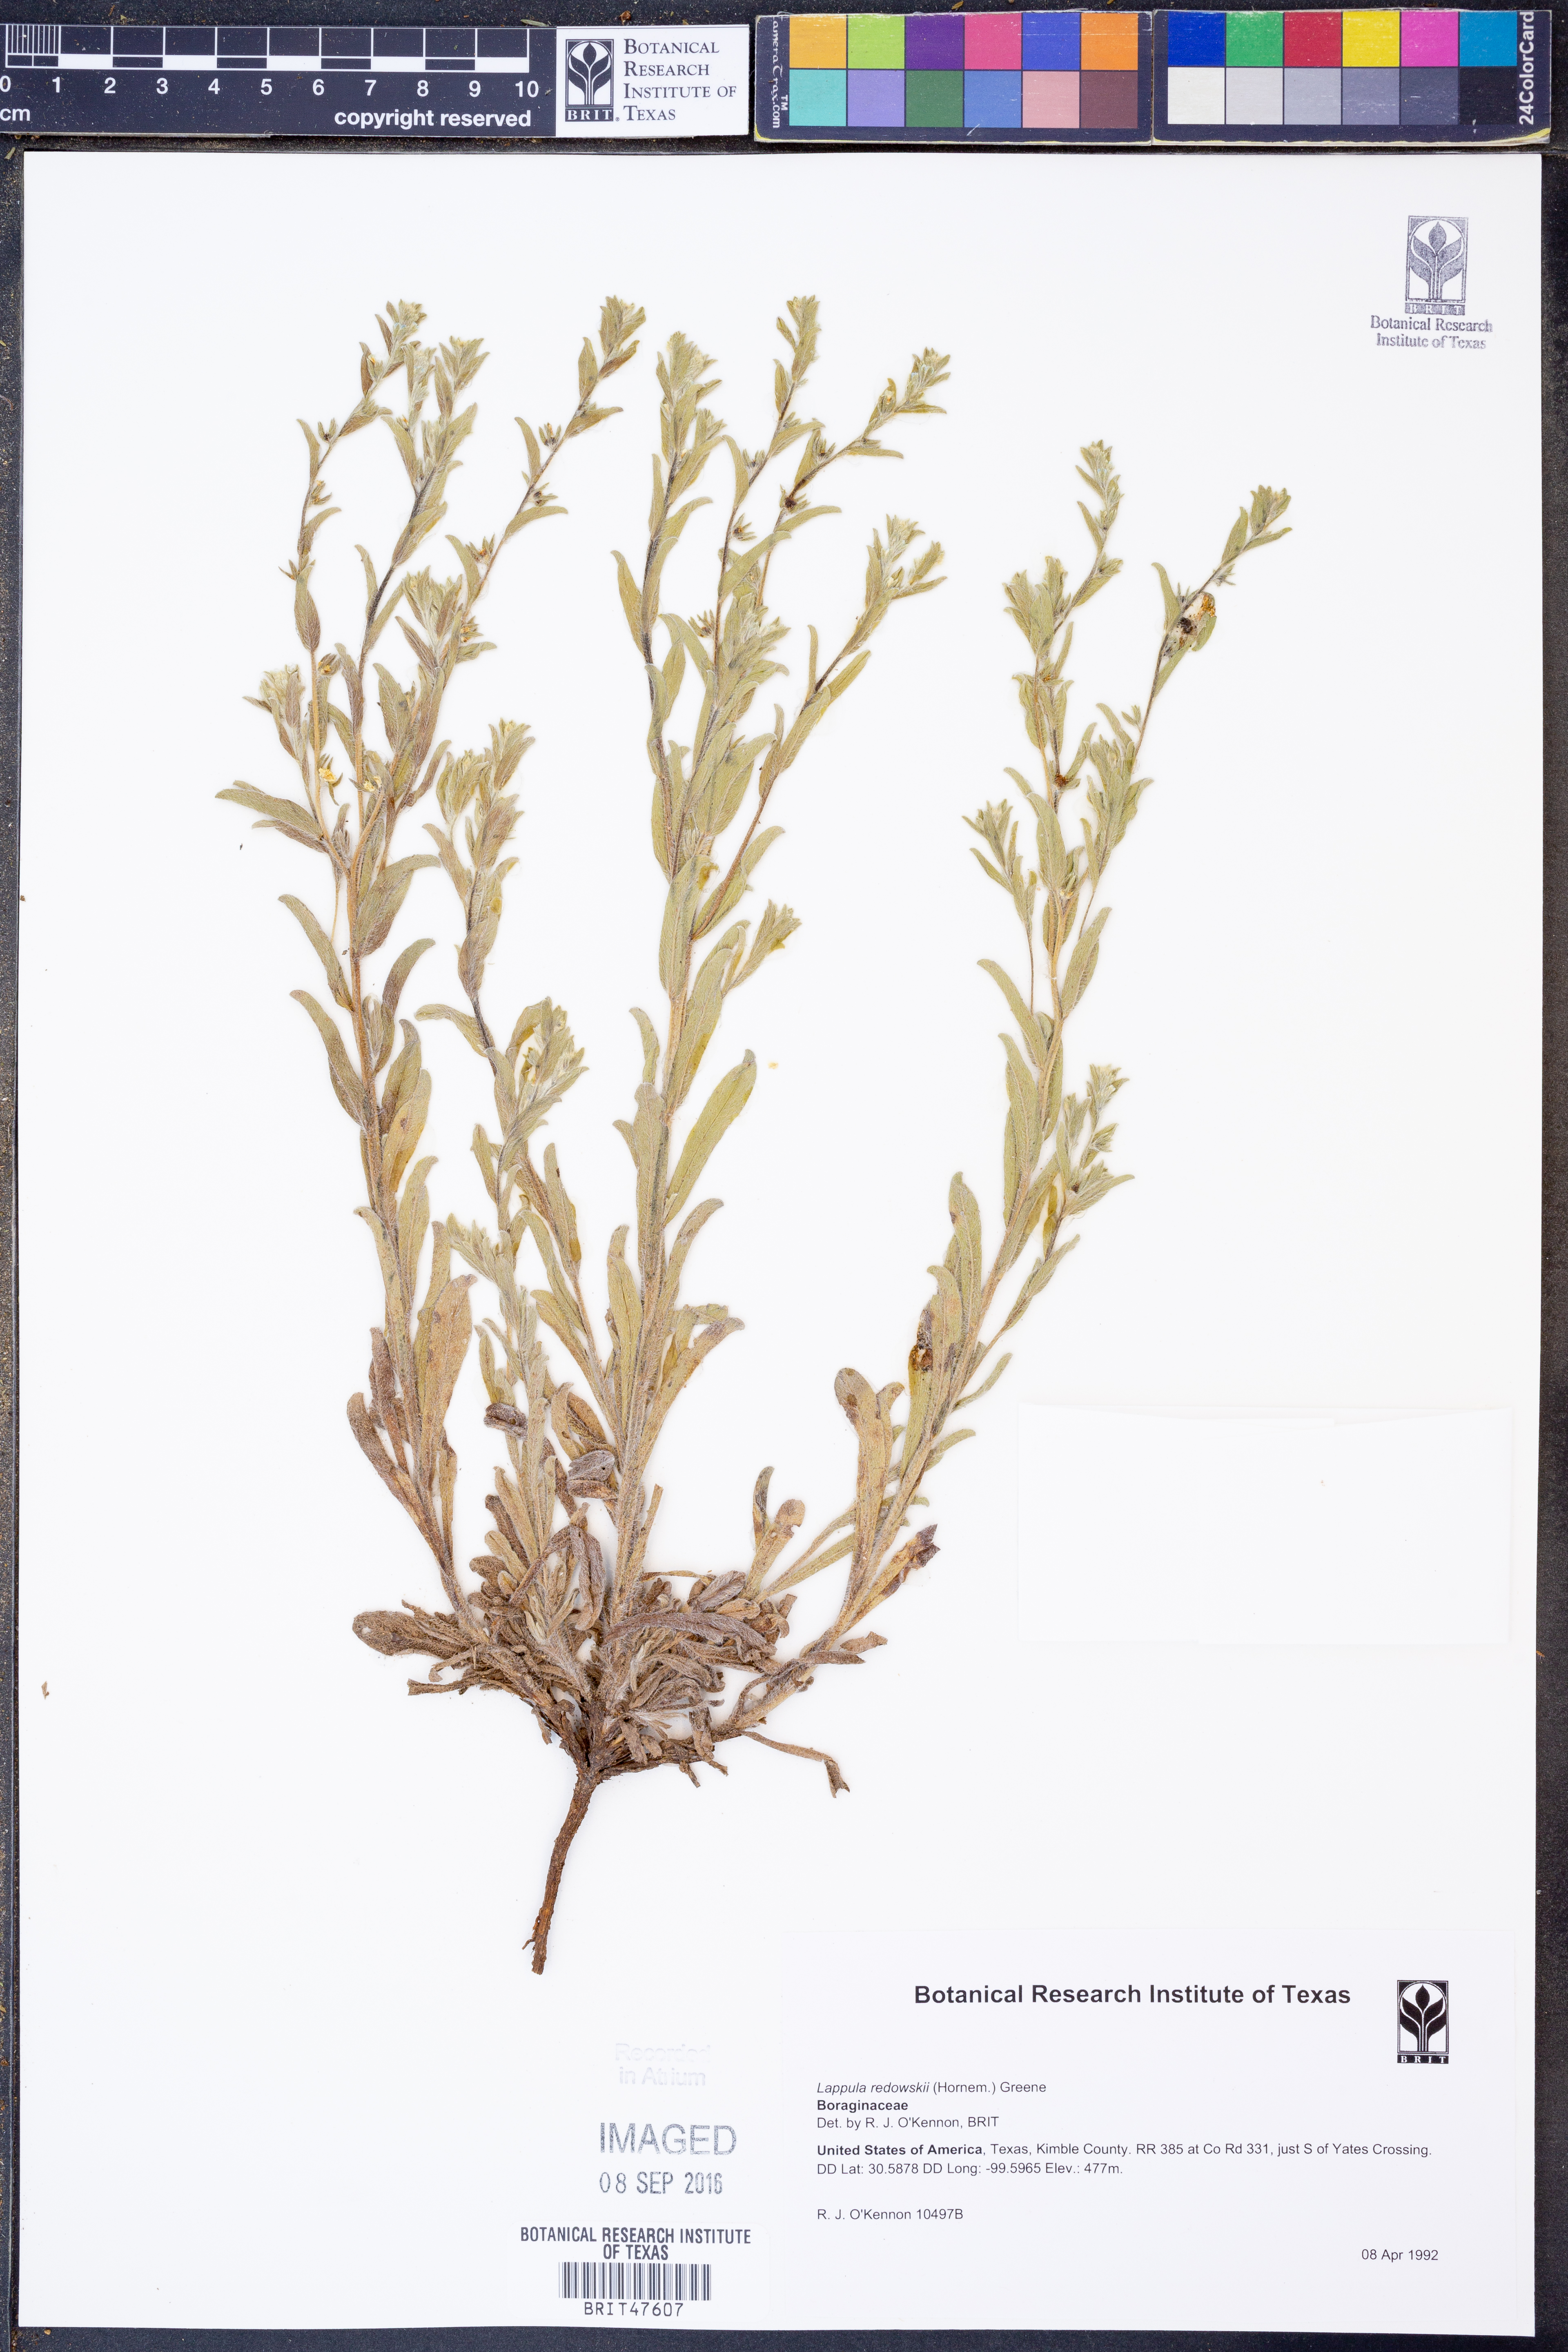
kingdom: Plantae
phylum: Tracheophyta
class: Magnoliopsida
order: Boraginales
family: Boraginaceae
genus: Lappula
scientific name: Lappula redowskii
